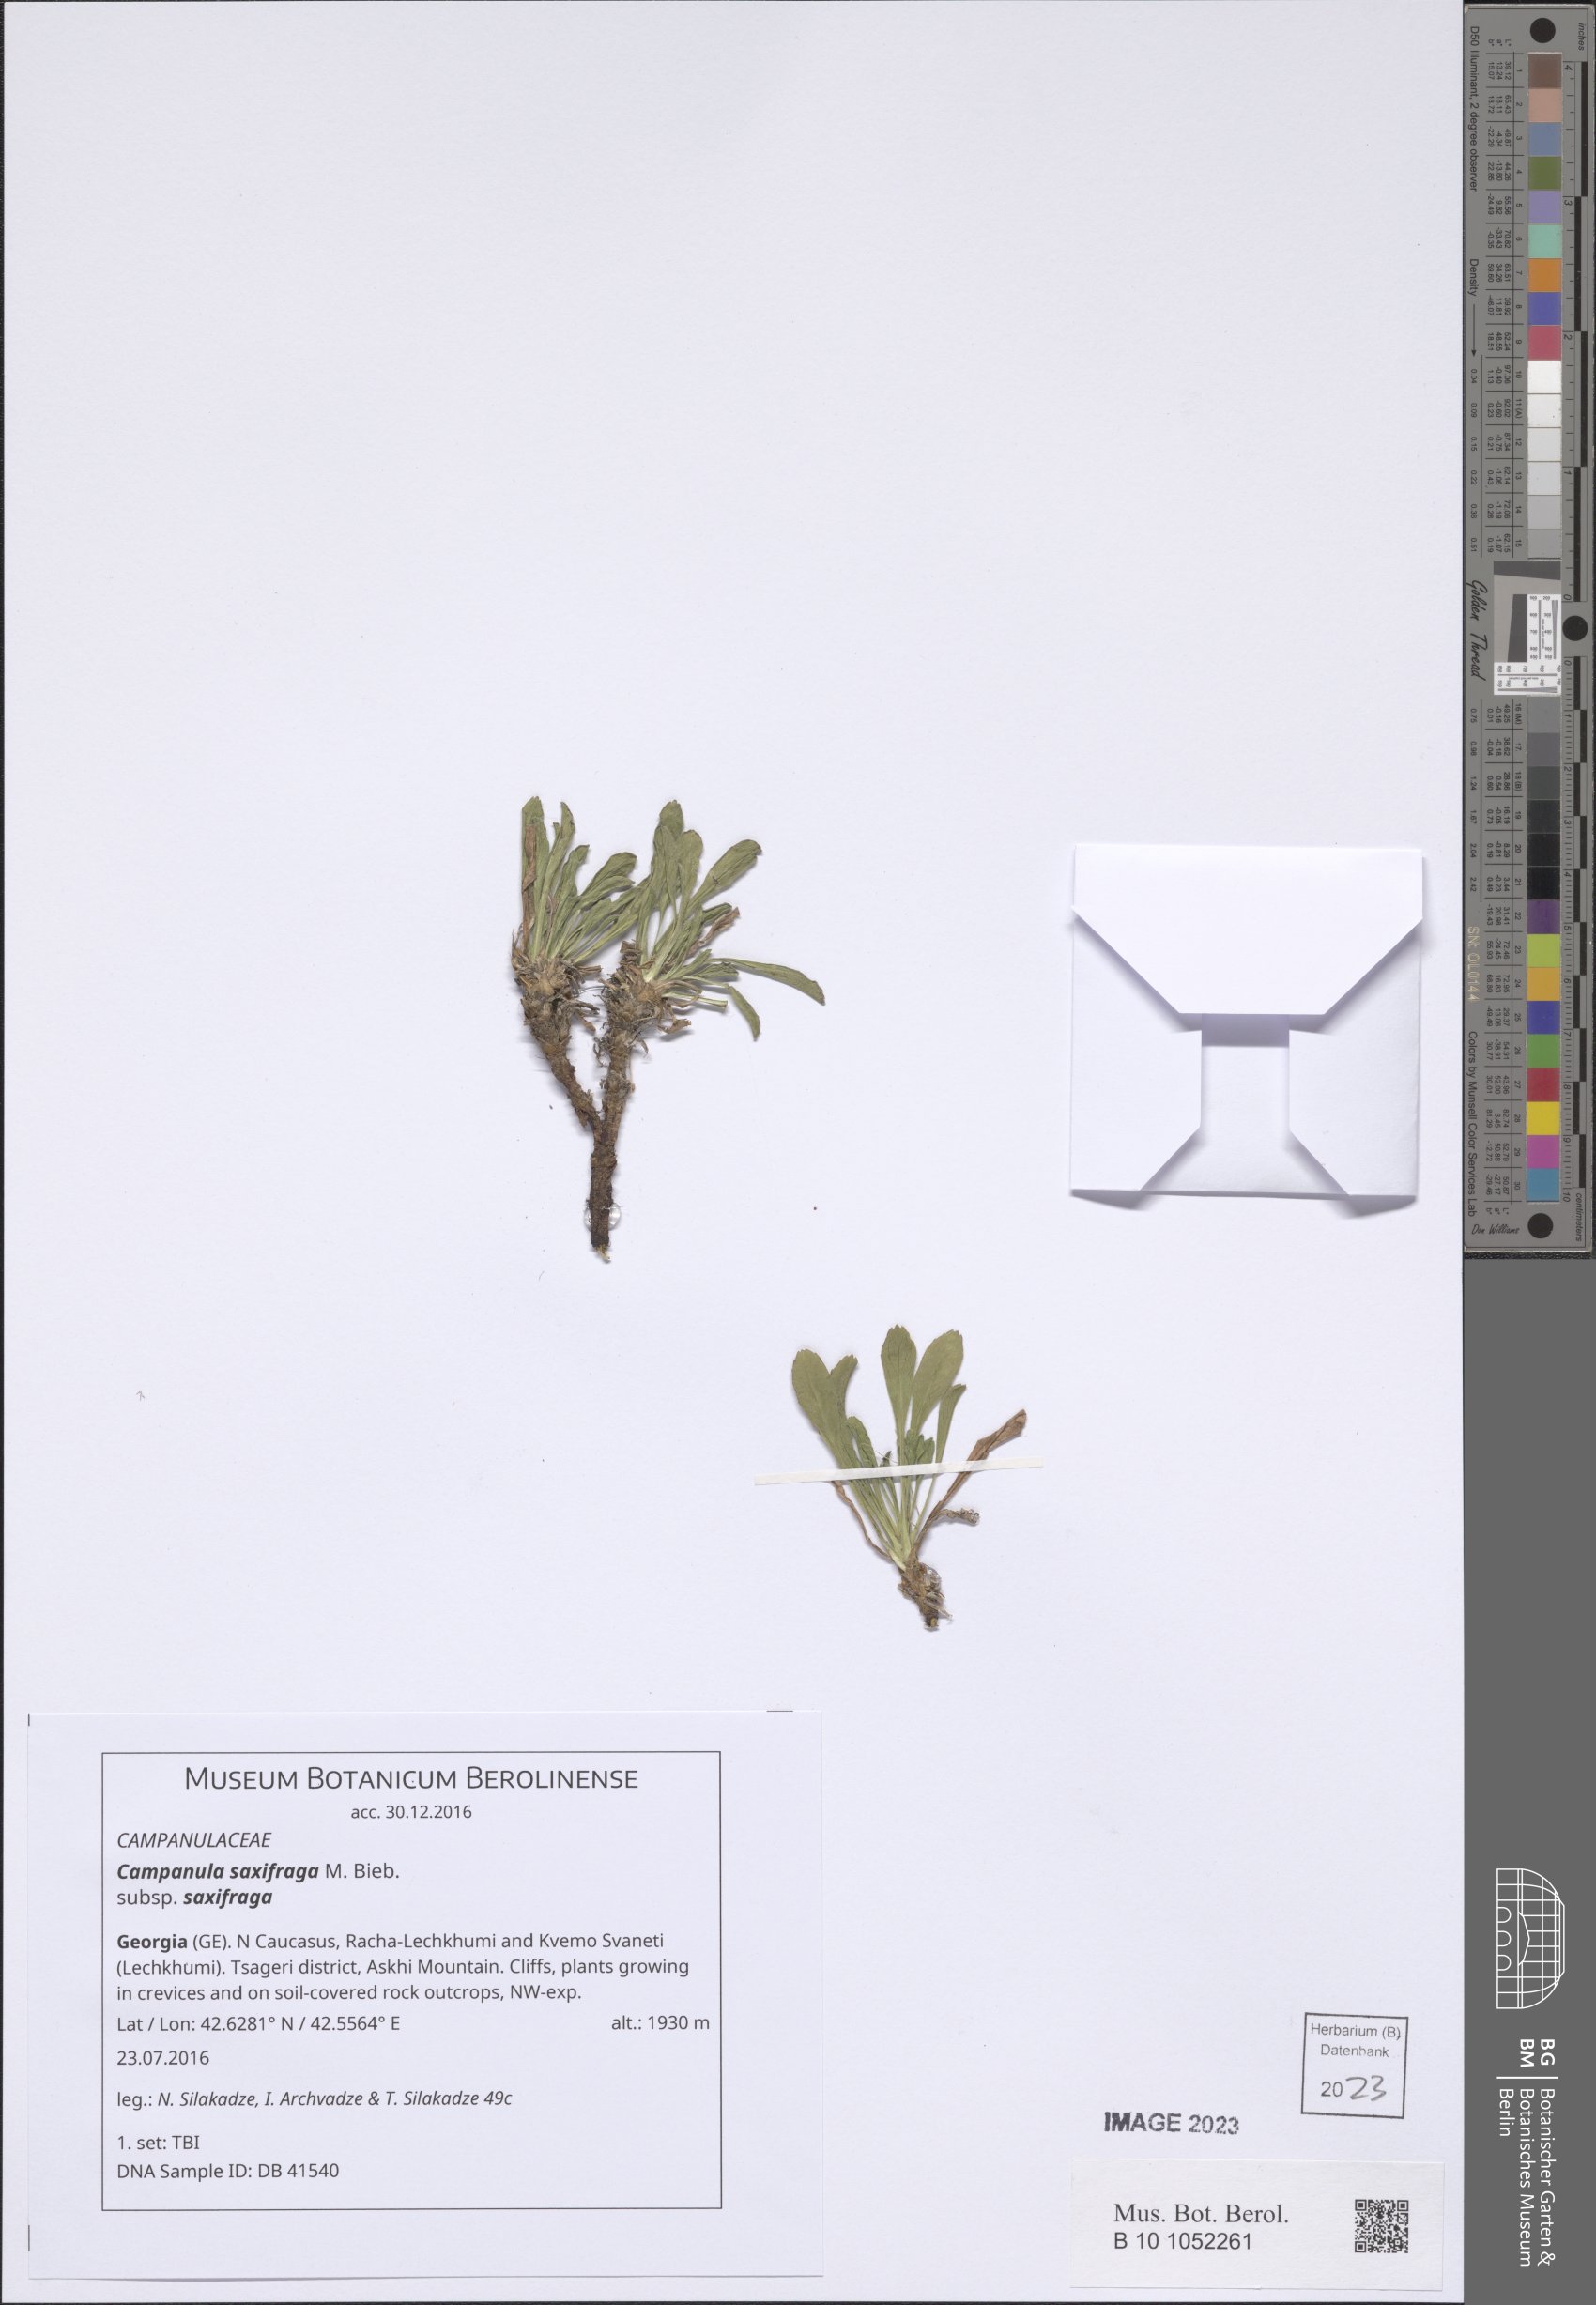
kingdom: Plantae
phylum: Tracheophyta
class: Magnoliopsida
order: Asterales
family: Campanulaceae
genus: Campanula
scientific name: Campanula saxifraga
